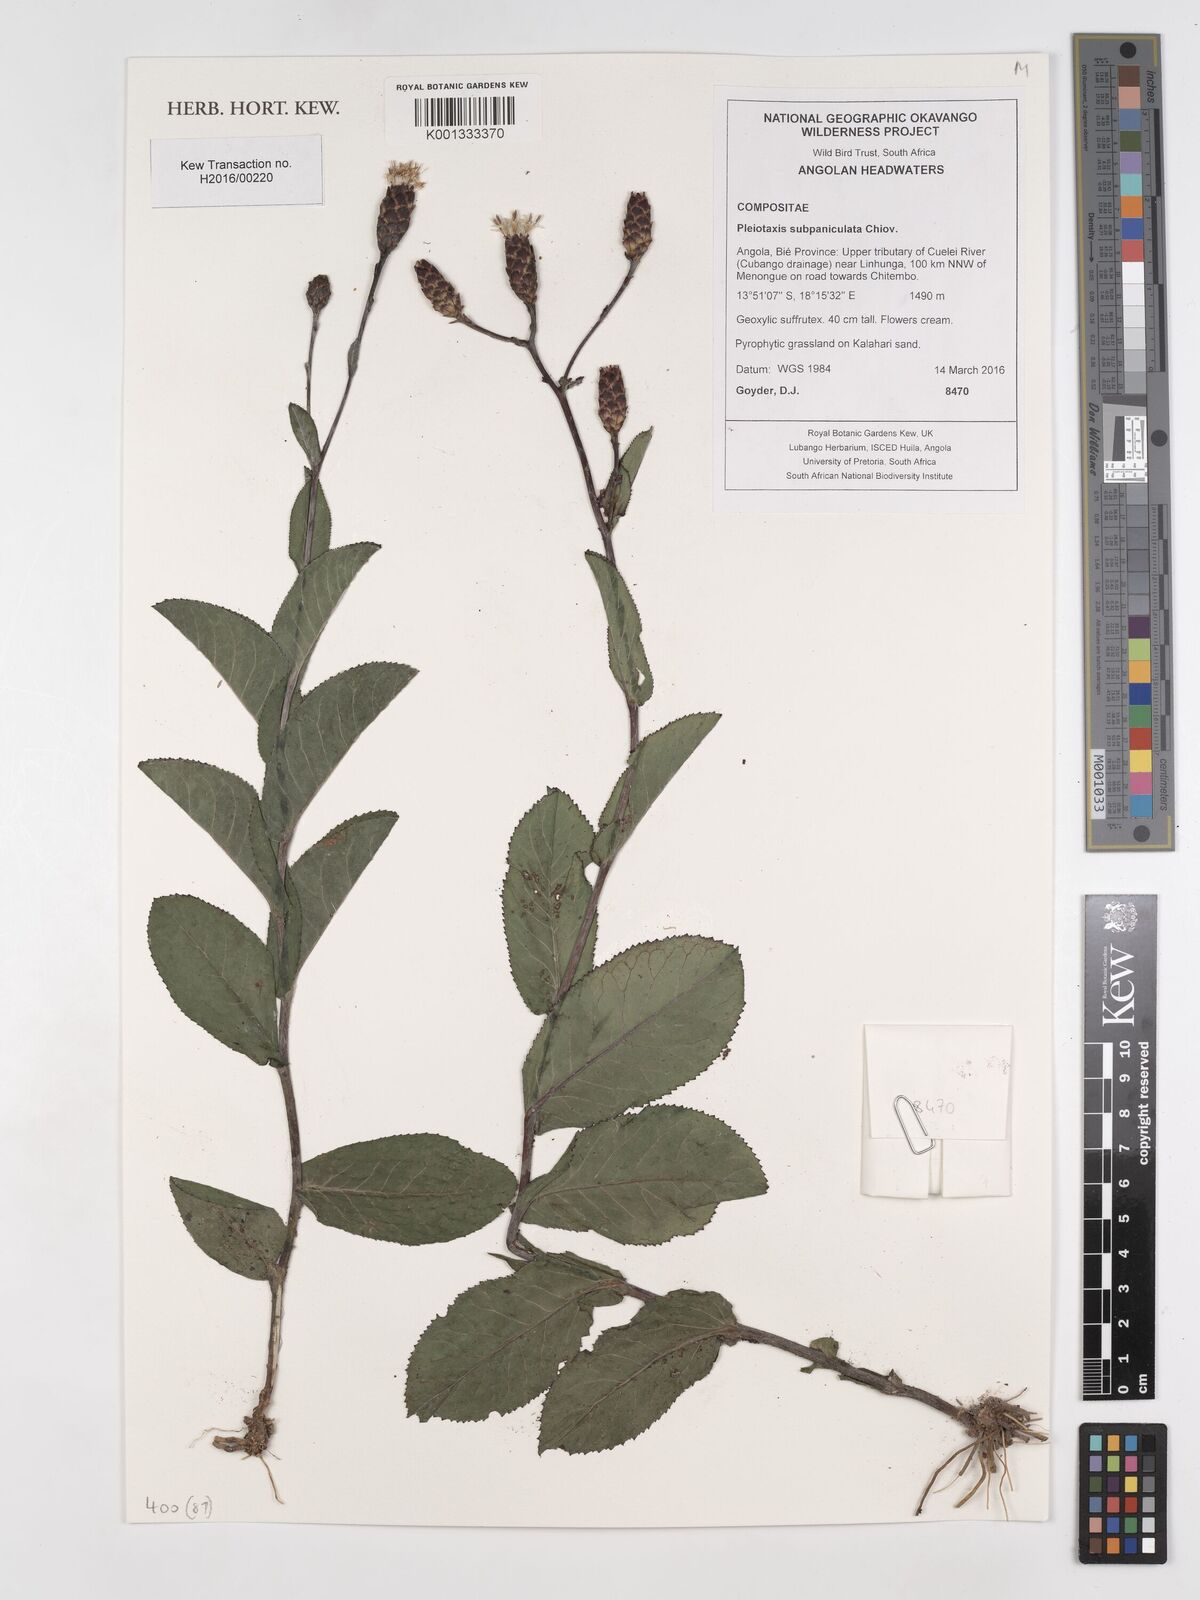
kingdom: Plantae
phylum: Tracheophyta
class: Magnoliopsida
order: Asterales
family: Asteraceae
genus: Pleiotaxis
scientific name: Pleiotaxis subpaniculata
